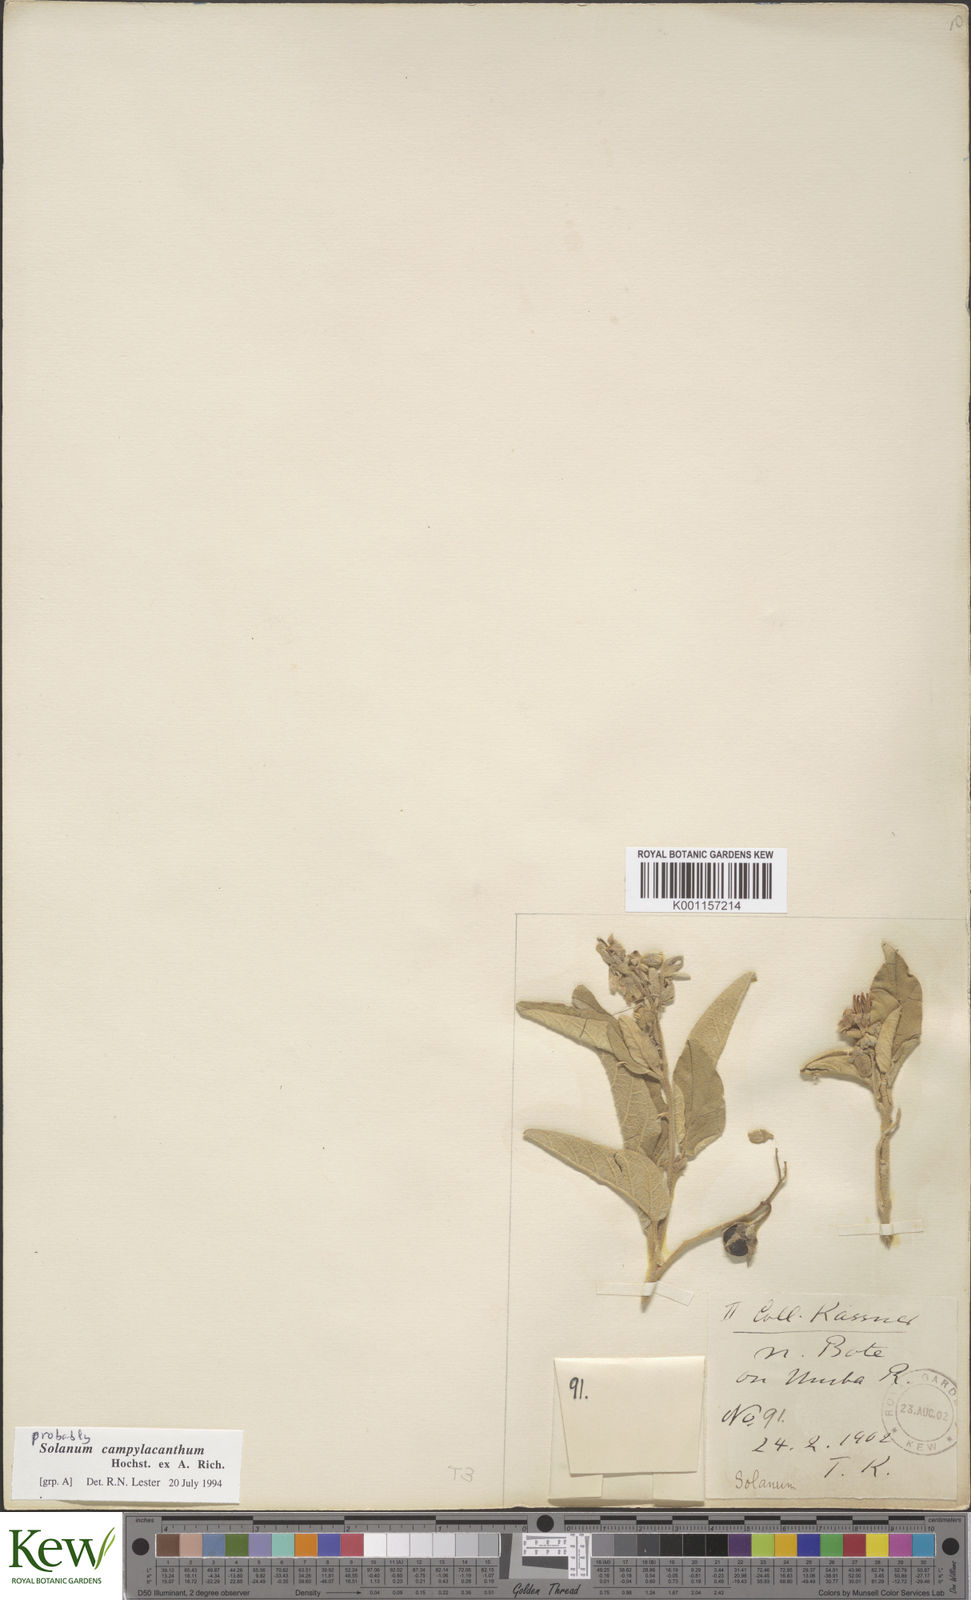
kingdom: Plantae
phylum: Tracheophyta
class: Magnoliopsida
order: Solanales
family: Solanaceae
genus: Solanum
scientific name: Solanum campylacanthum
